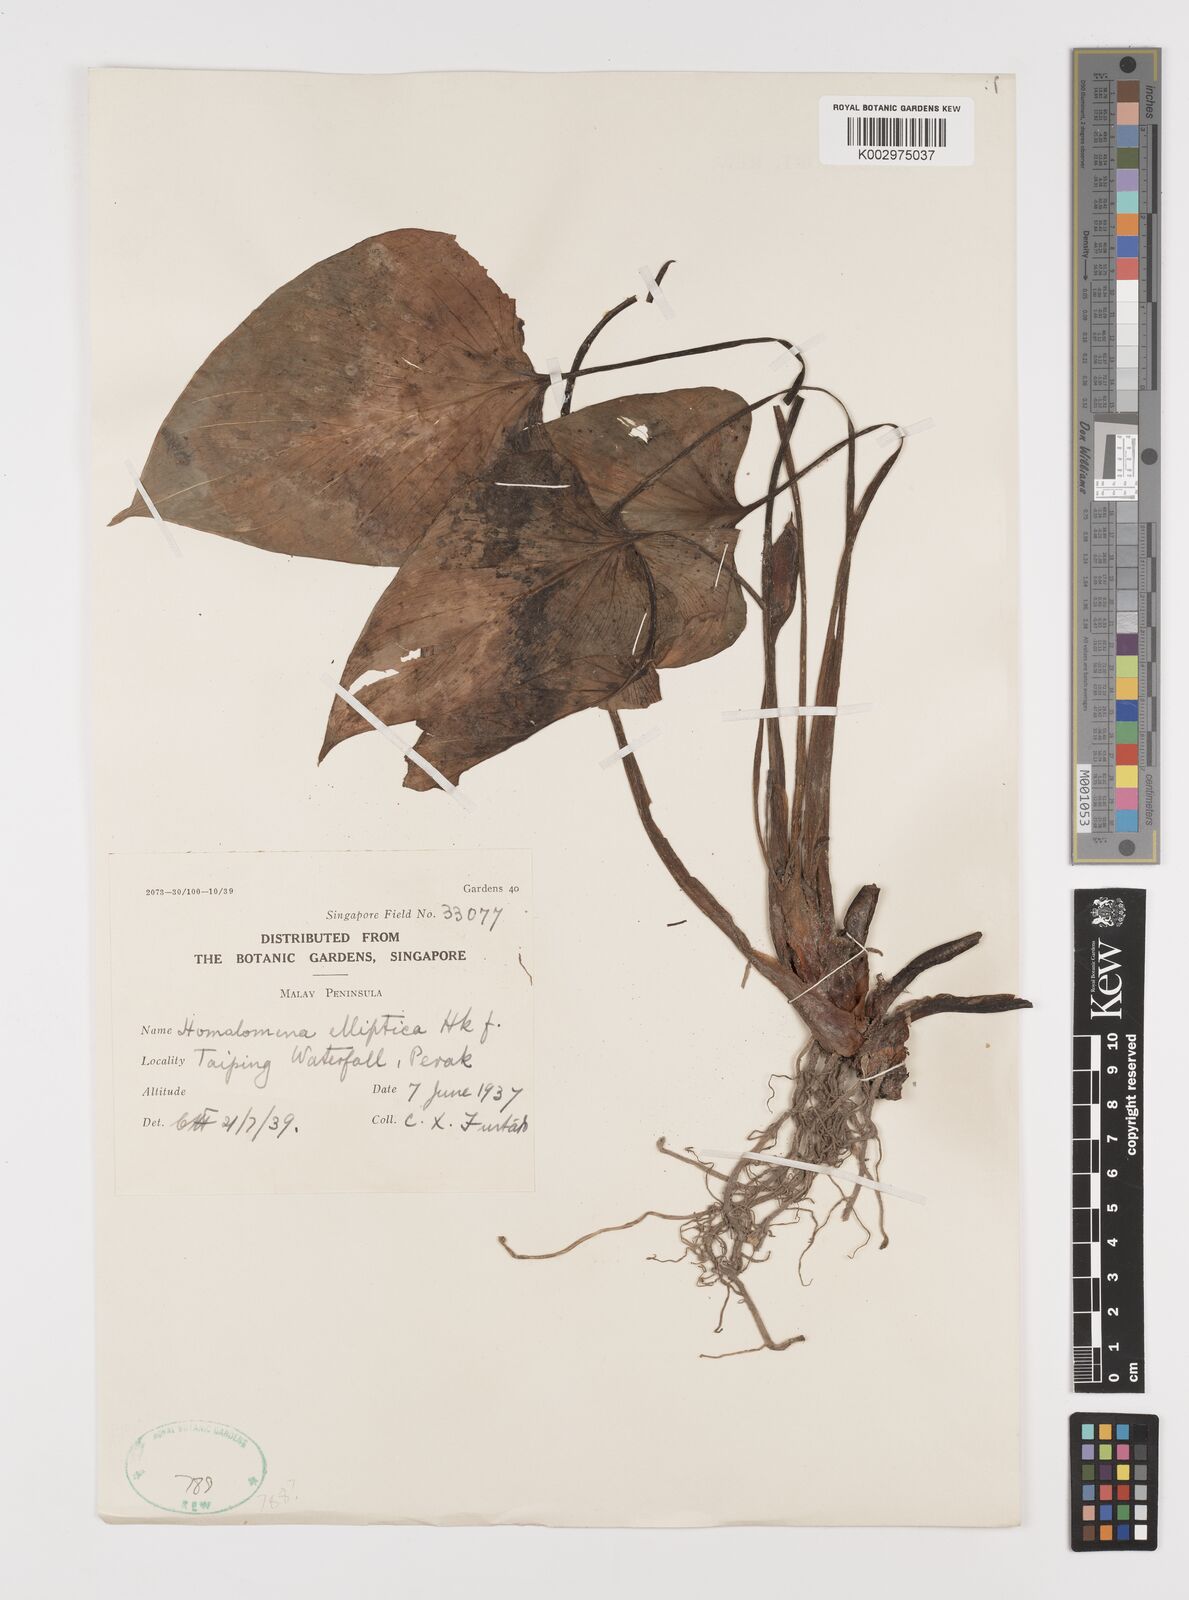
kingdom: Plantae
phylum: Tracheophyta
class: Liliopsida
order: Alismatales
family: Araceae
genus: Homalomena
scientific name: Homalomena griffithii
